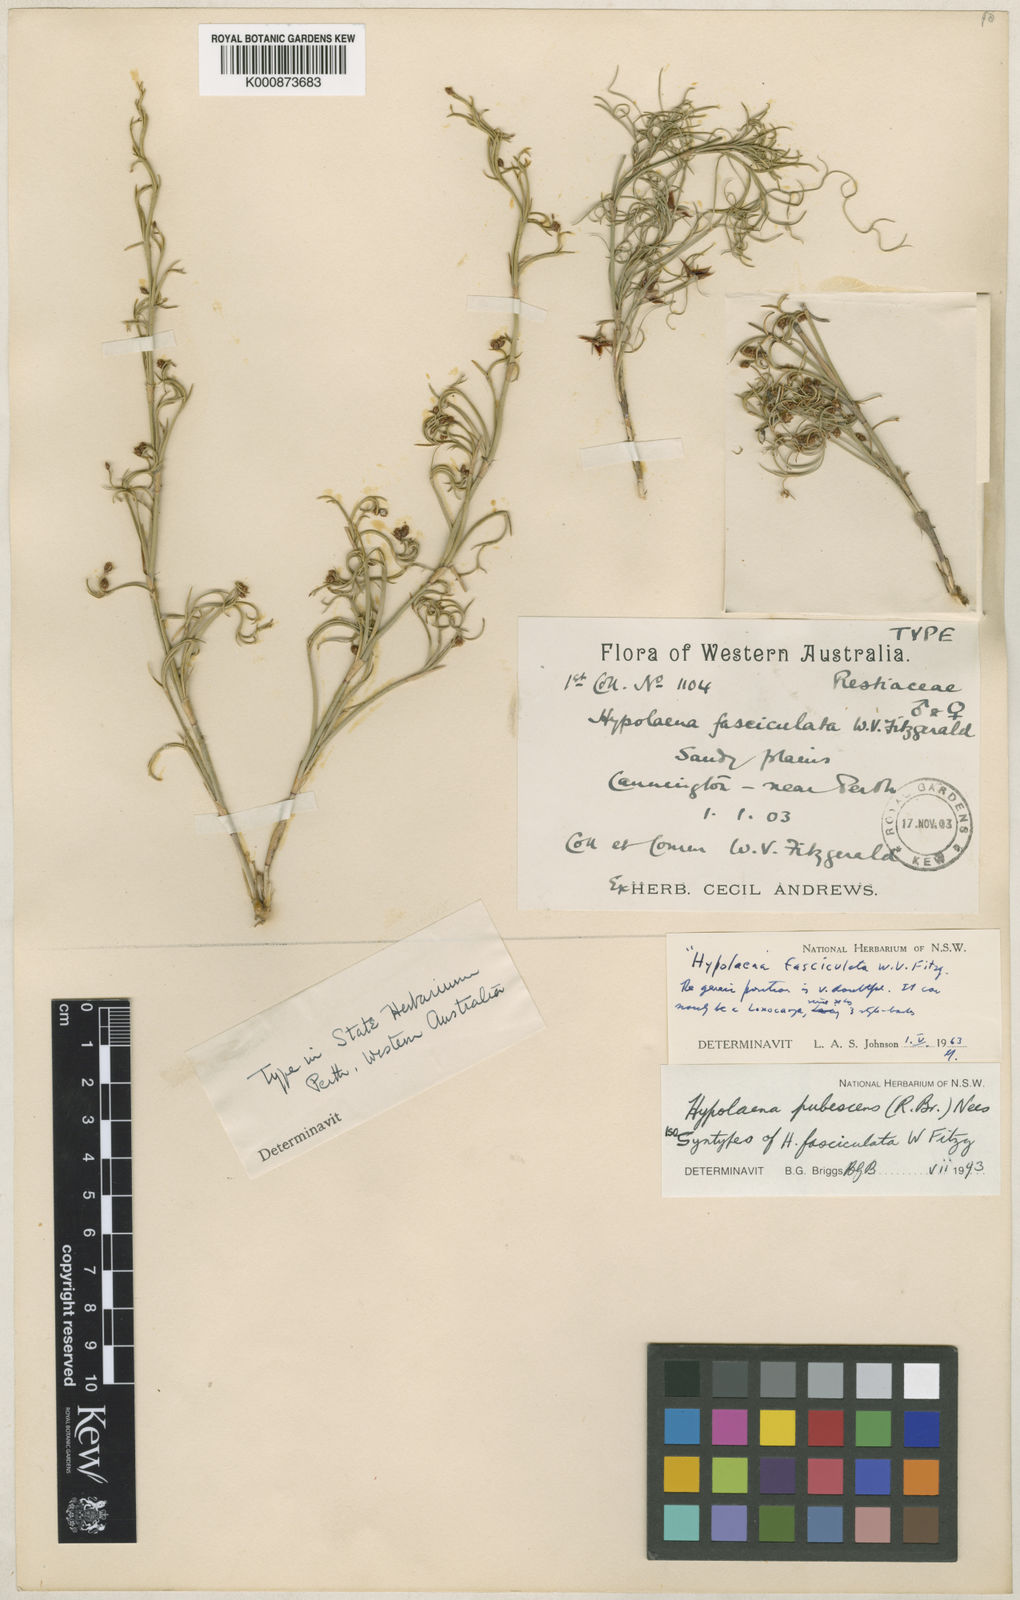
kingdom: Plantae
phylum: Tracheophyta
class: Liliopsida
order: Poales
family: Restionaceae
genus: Hypolaena
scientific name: Hypolaena pubescens
